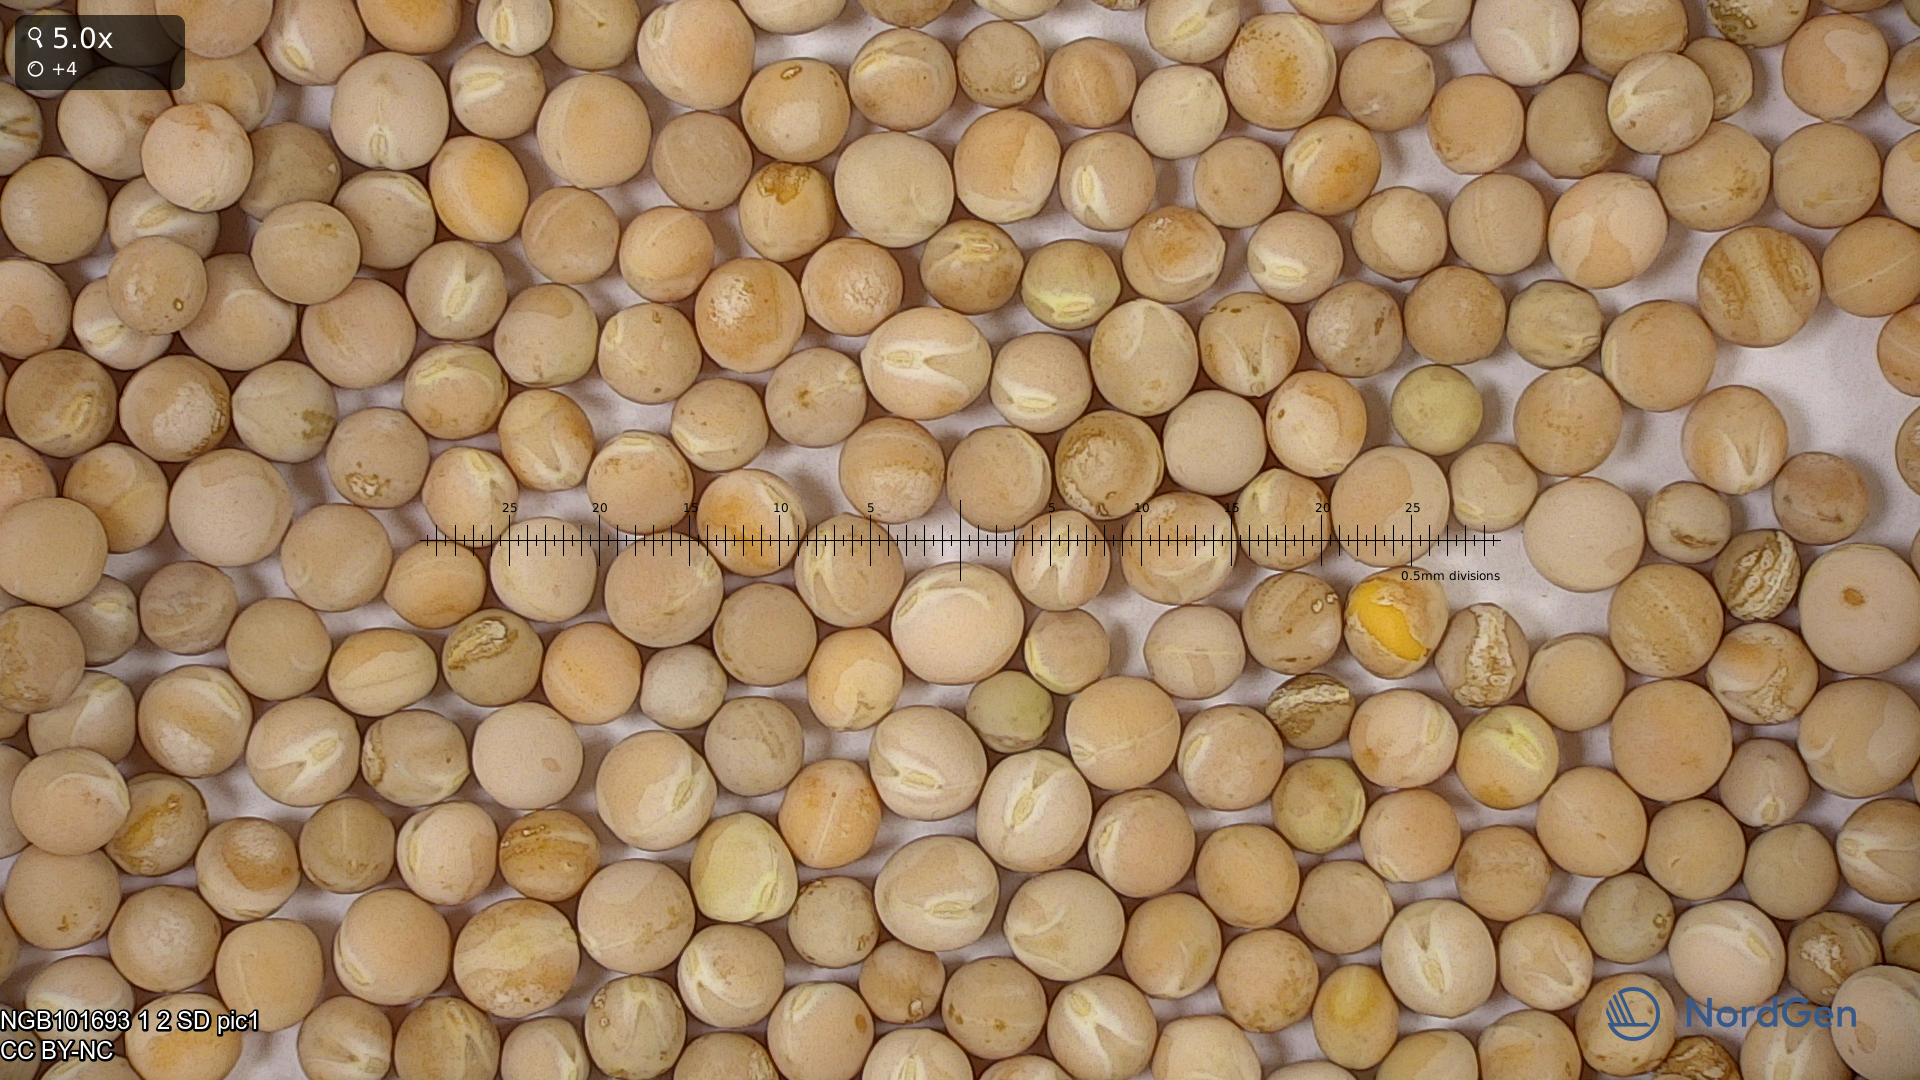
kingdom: Plantae
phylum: Tracheophyta
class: Magnoliopsida
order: Fabales
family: Fabaceae
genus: Lathyrus
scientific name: Lathyrus oleraceus
